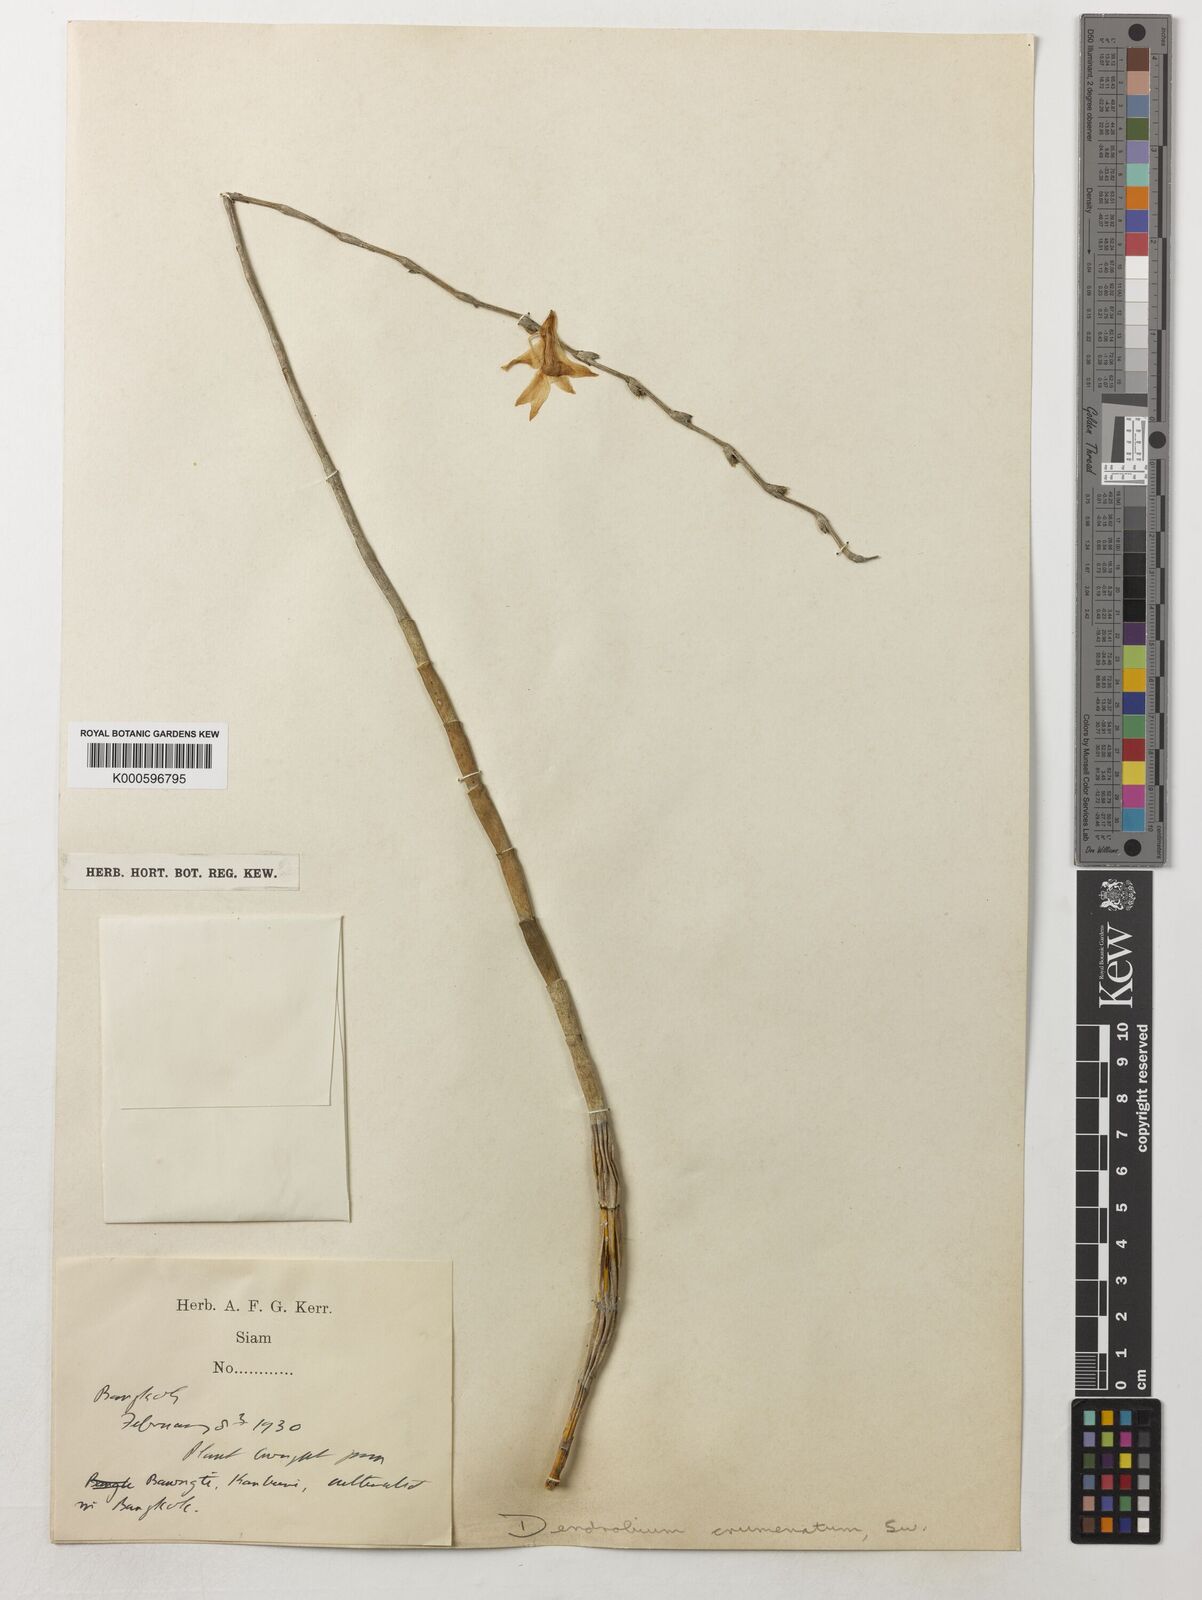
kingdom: Plantae
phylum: Tracheophyta
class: Liliopsida
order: Asparagales
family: Orchidaceae
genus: Dendrobium
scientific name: Dendrobium crumenatum
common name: Orchid
